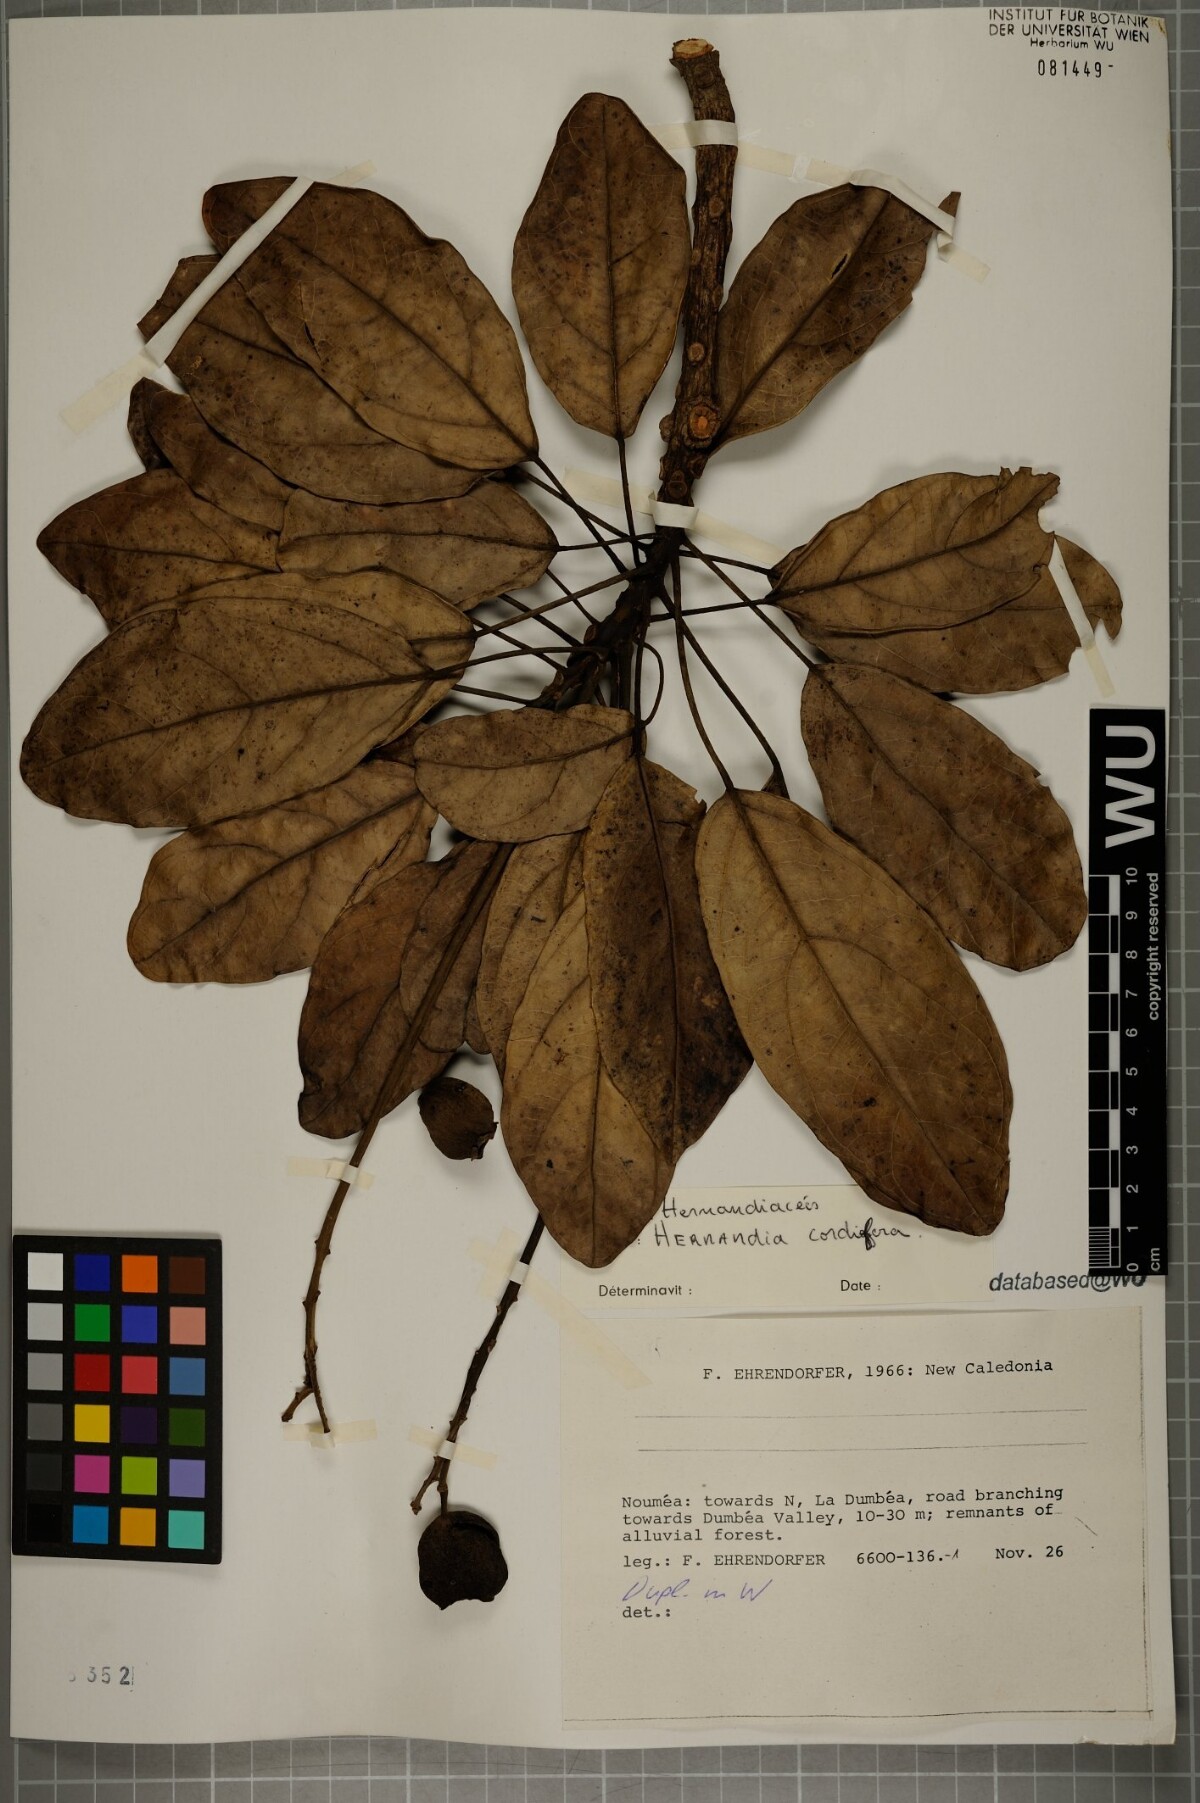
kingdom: Plantae
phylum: Tracheophyta
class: Magnoliopsida
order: Laurales
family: Hernandiaceae
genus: Hernandia
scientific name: Hernandia cordigera
